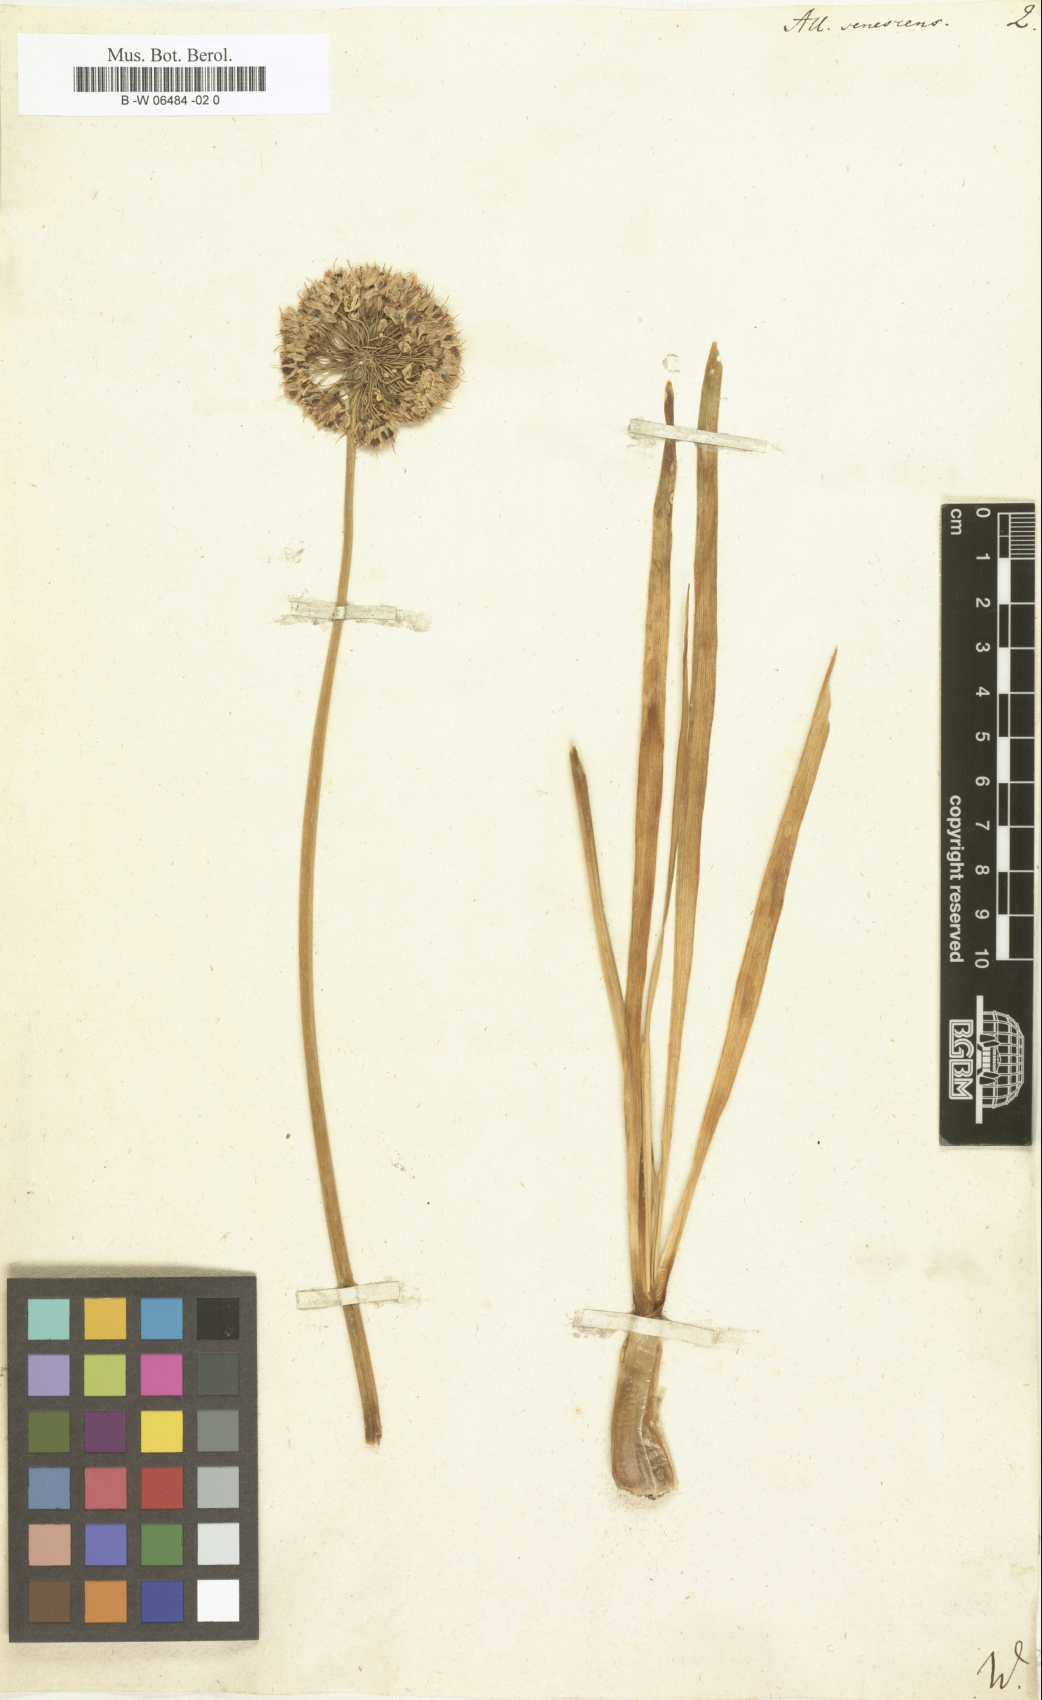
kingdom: Plantae
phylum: Tracheophyta
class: Liliopsida
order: Asparagales
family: Amaryllidaceae
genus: Allium
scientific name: Allium senescens
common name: German garlic
